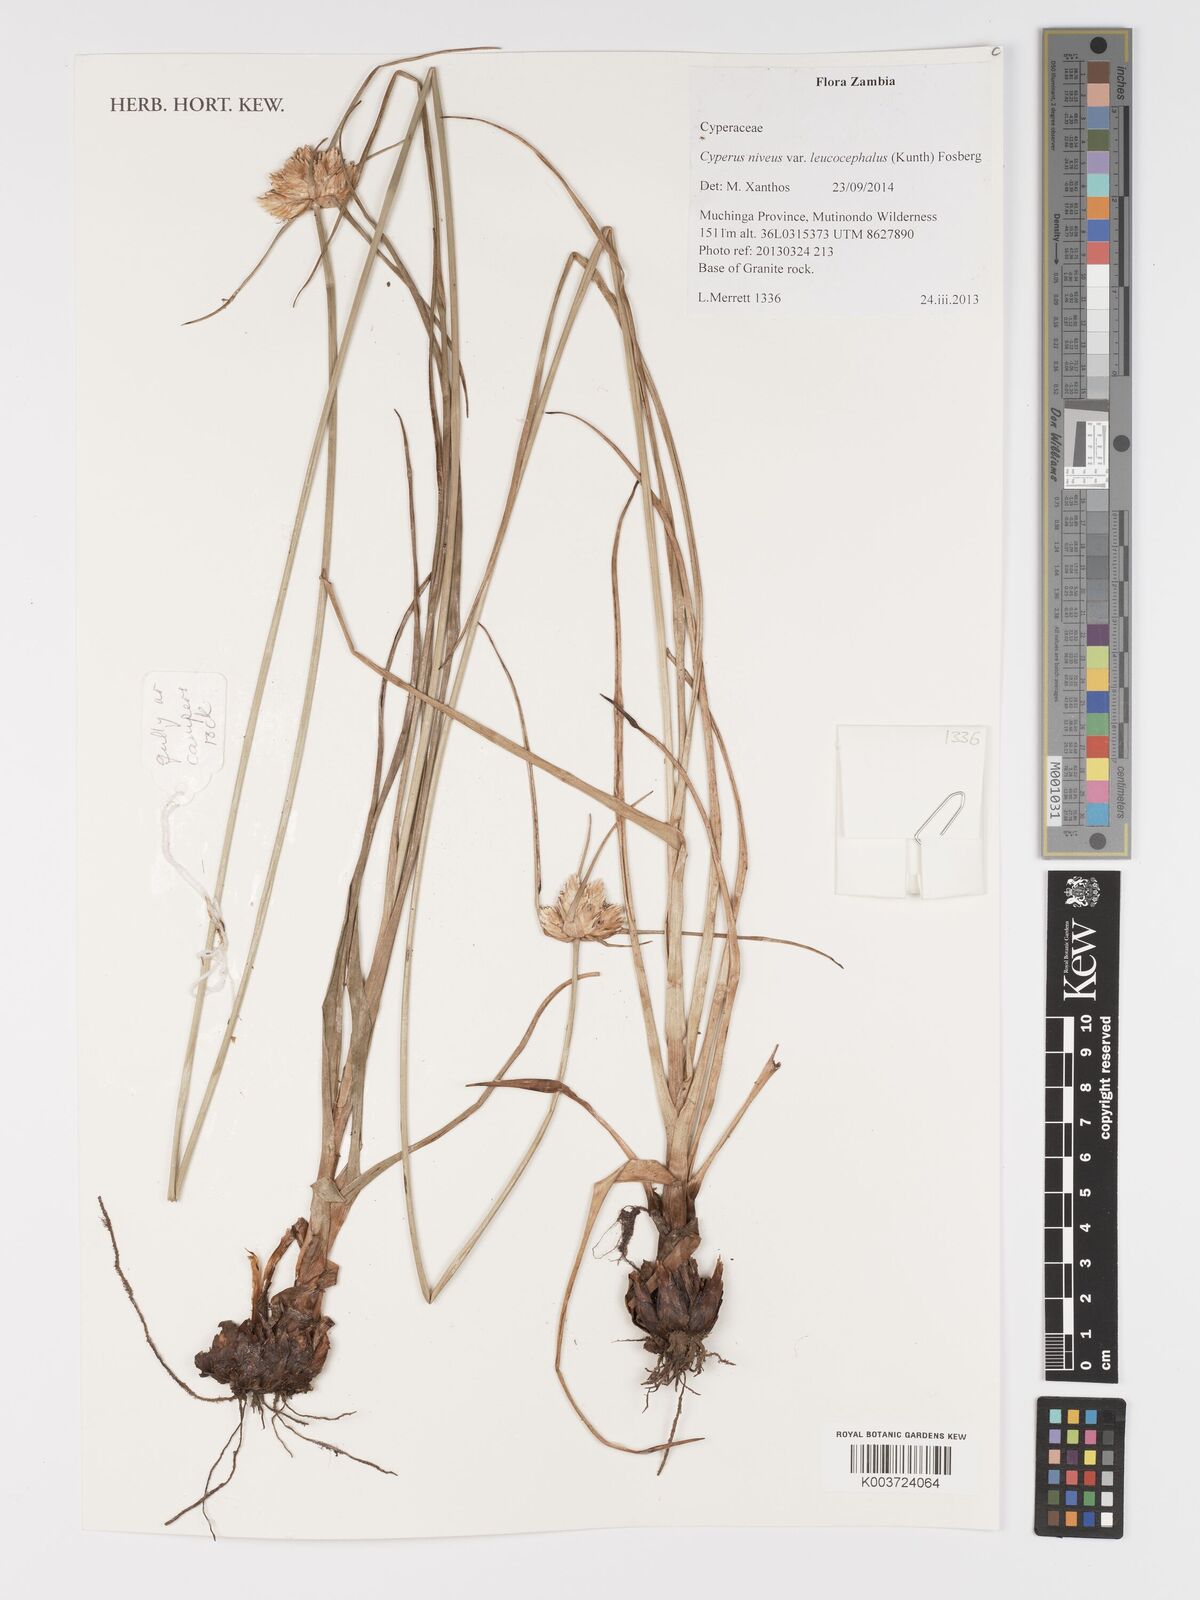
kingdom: Plantae
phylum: Tracheophyta
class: Liliopsida
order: Poales
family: Cyperaceae
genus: Cyperus
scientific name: Cyperus niveus
